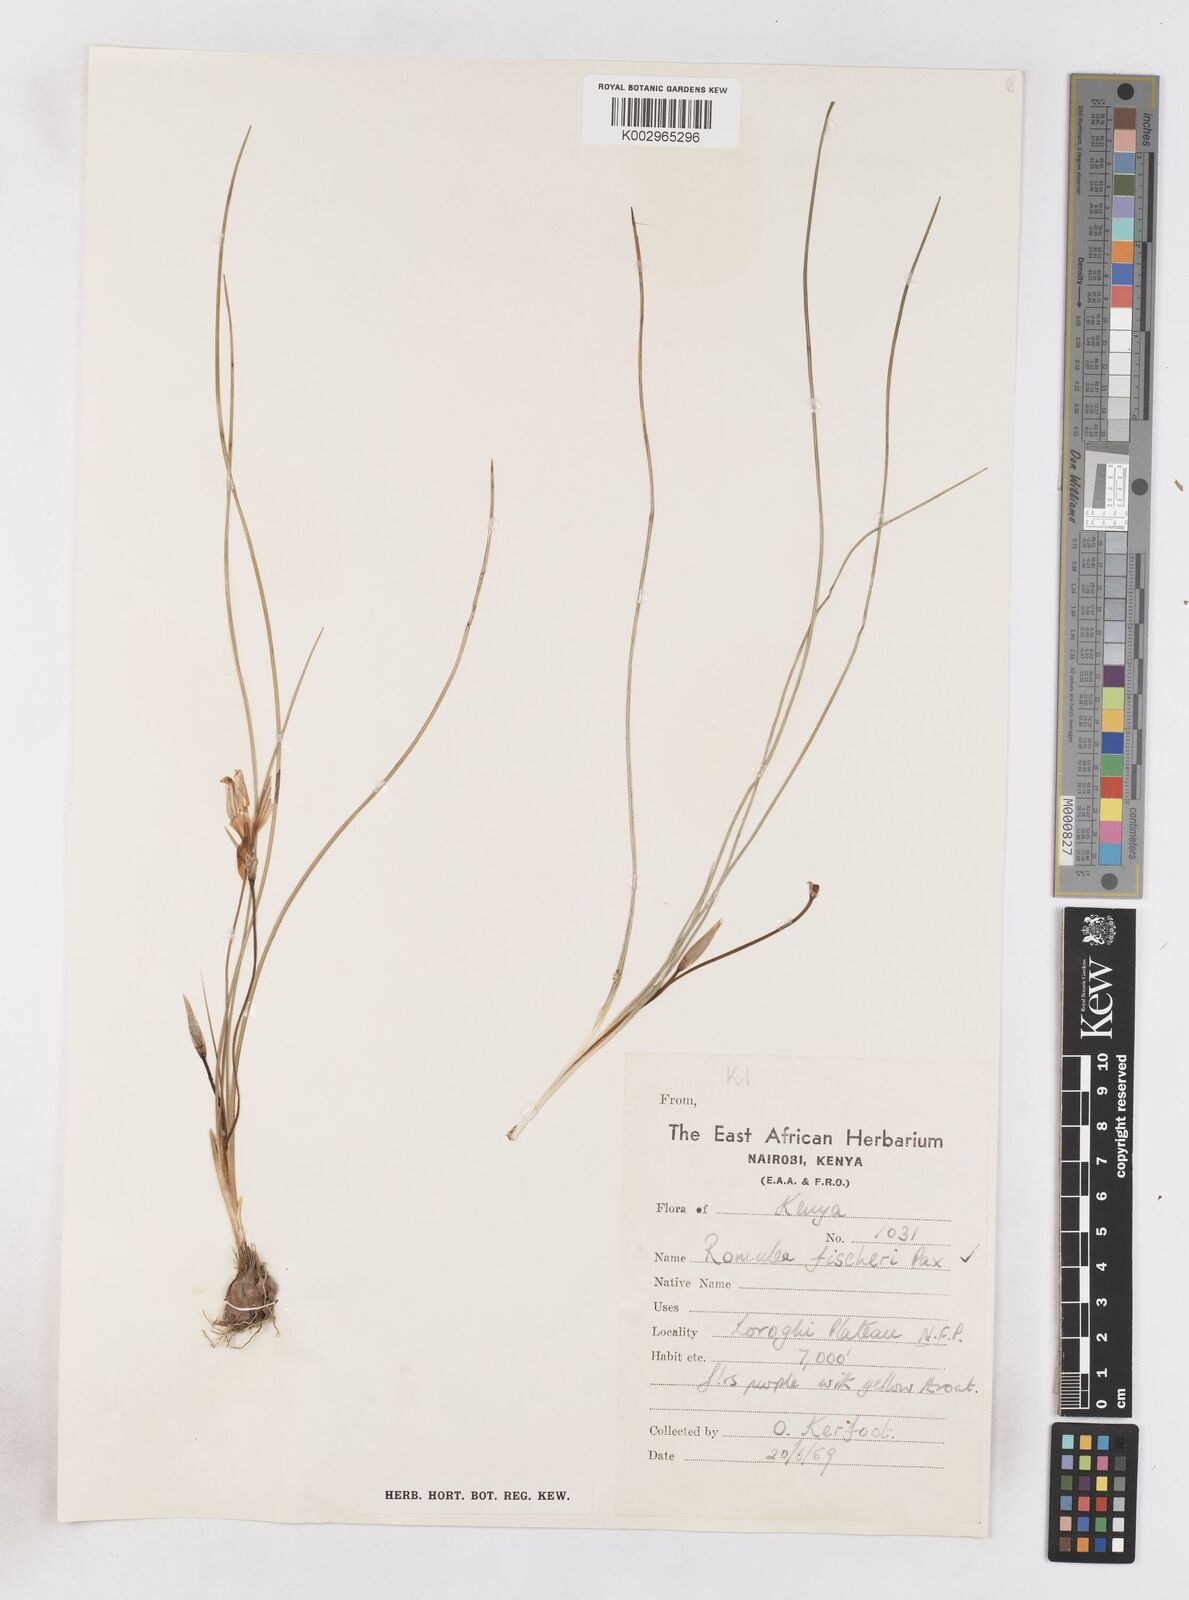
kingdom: Plantae
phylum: Tracheophyta
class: Liliopsida
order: Asparagales
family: Iridaceae
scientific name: Iridaceae
